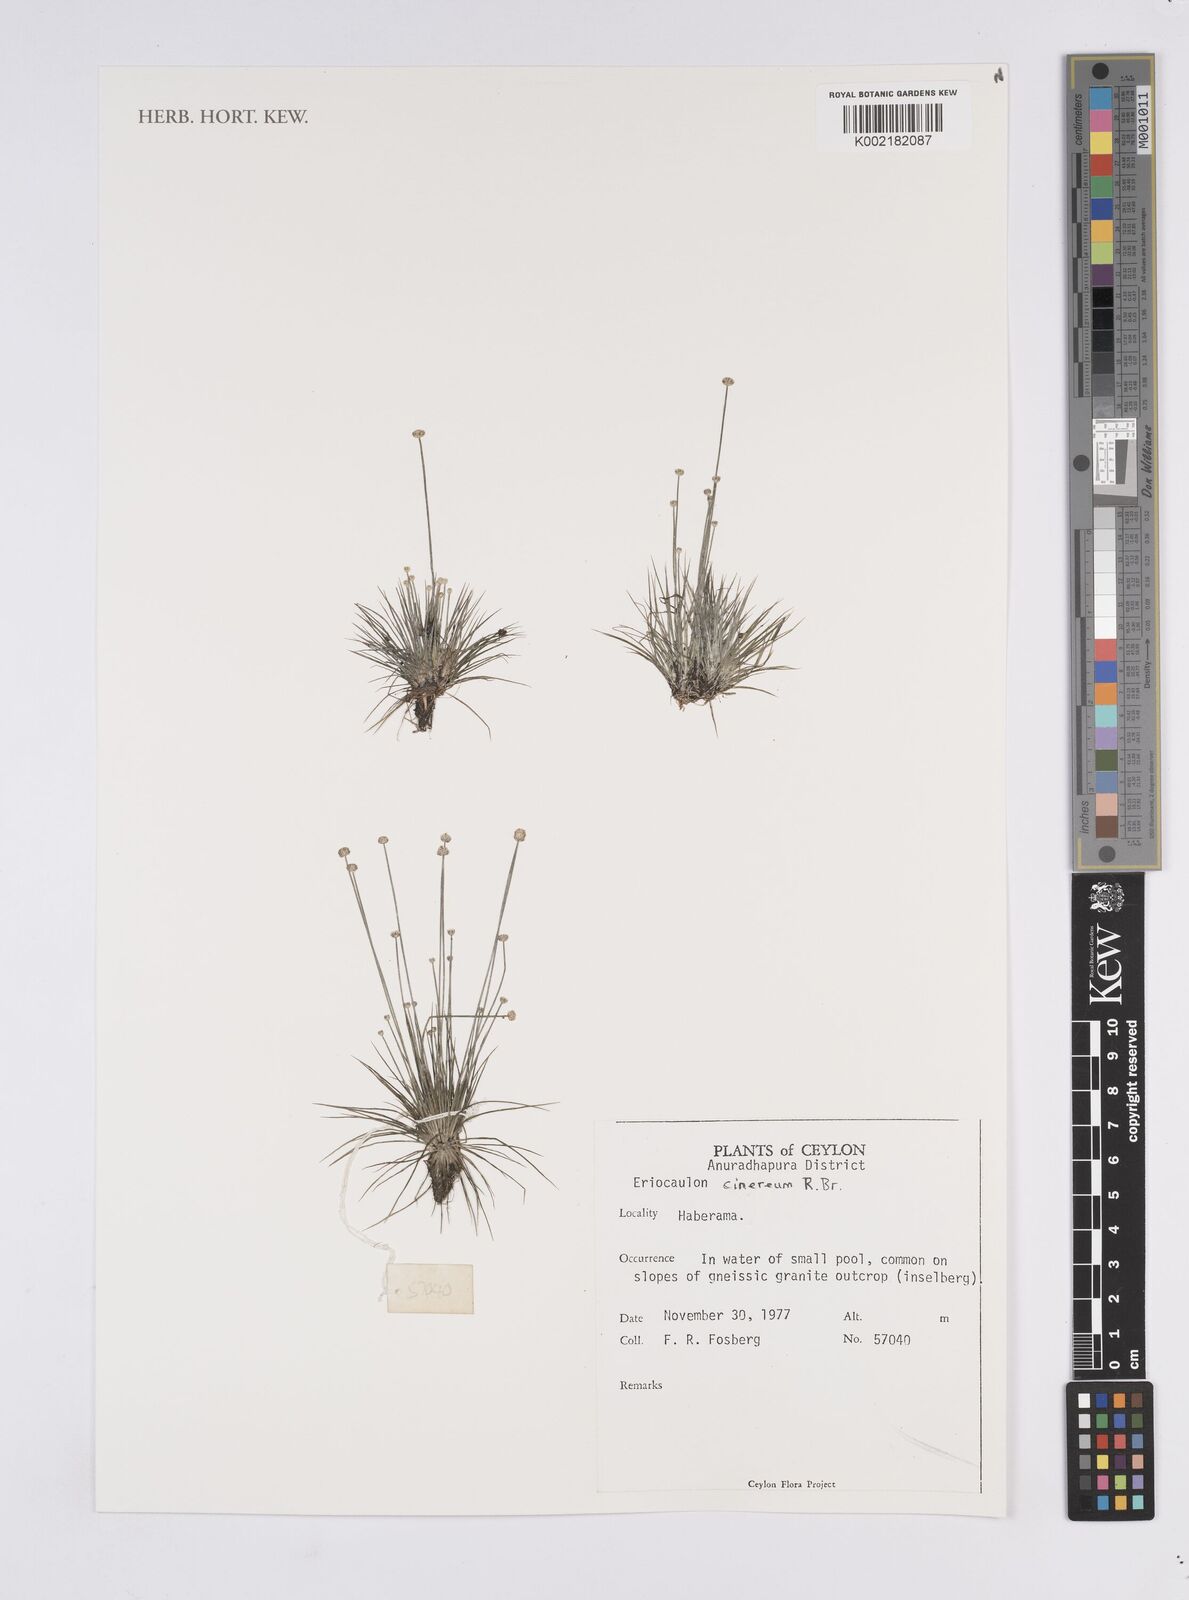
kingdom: Plantae
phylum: Tracheophyta
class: Liliopsida
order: Poales
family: Eriocaulaceae
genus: Eriocaulon
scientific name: Eriocaulon cinereum
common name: Ashy pipewort
